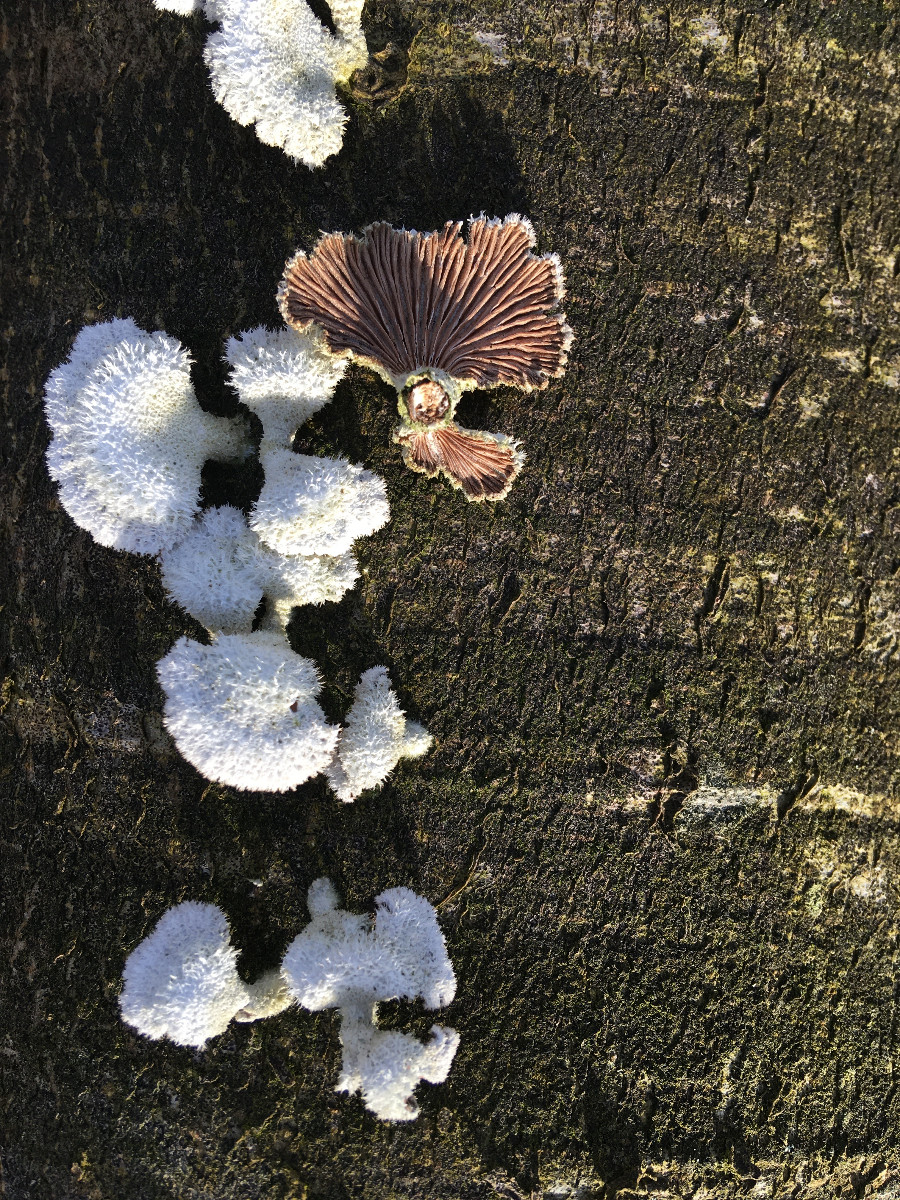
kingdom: Fungi
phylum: Basidiomycota
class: Agaricomycetes
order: Agaricales
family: Schizophyllaceae
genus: Schizophyllum
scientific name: Schizophyllum commune
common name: kløvblad
